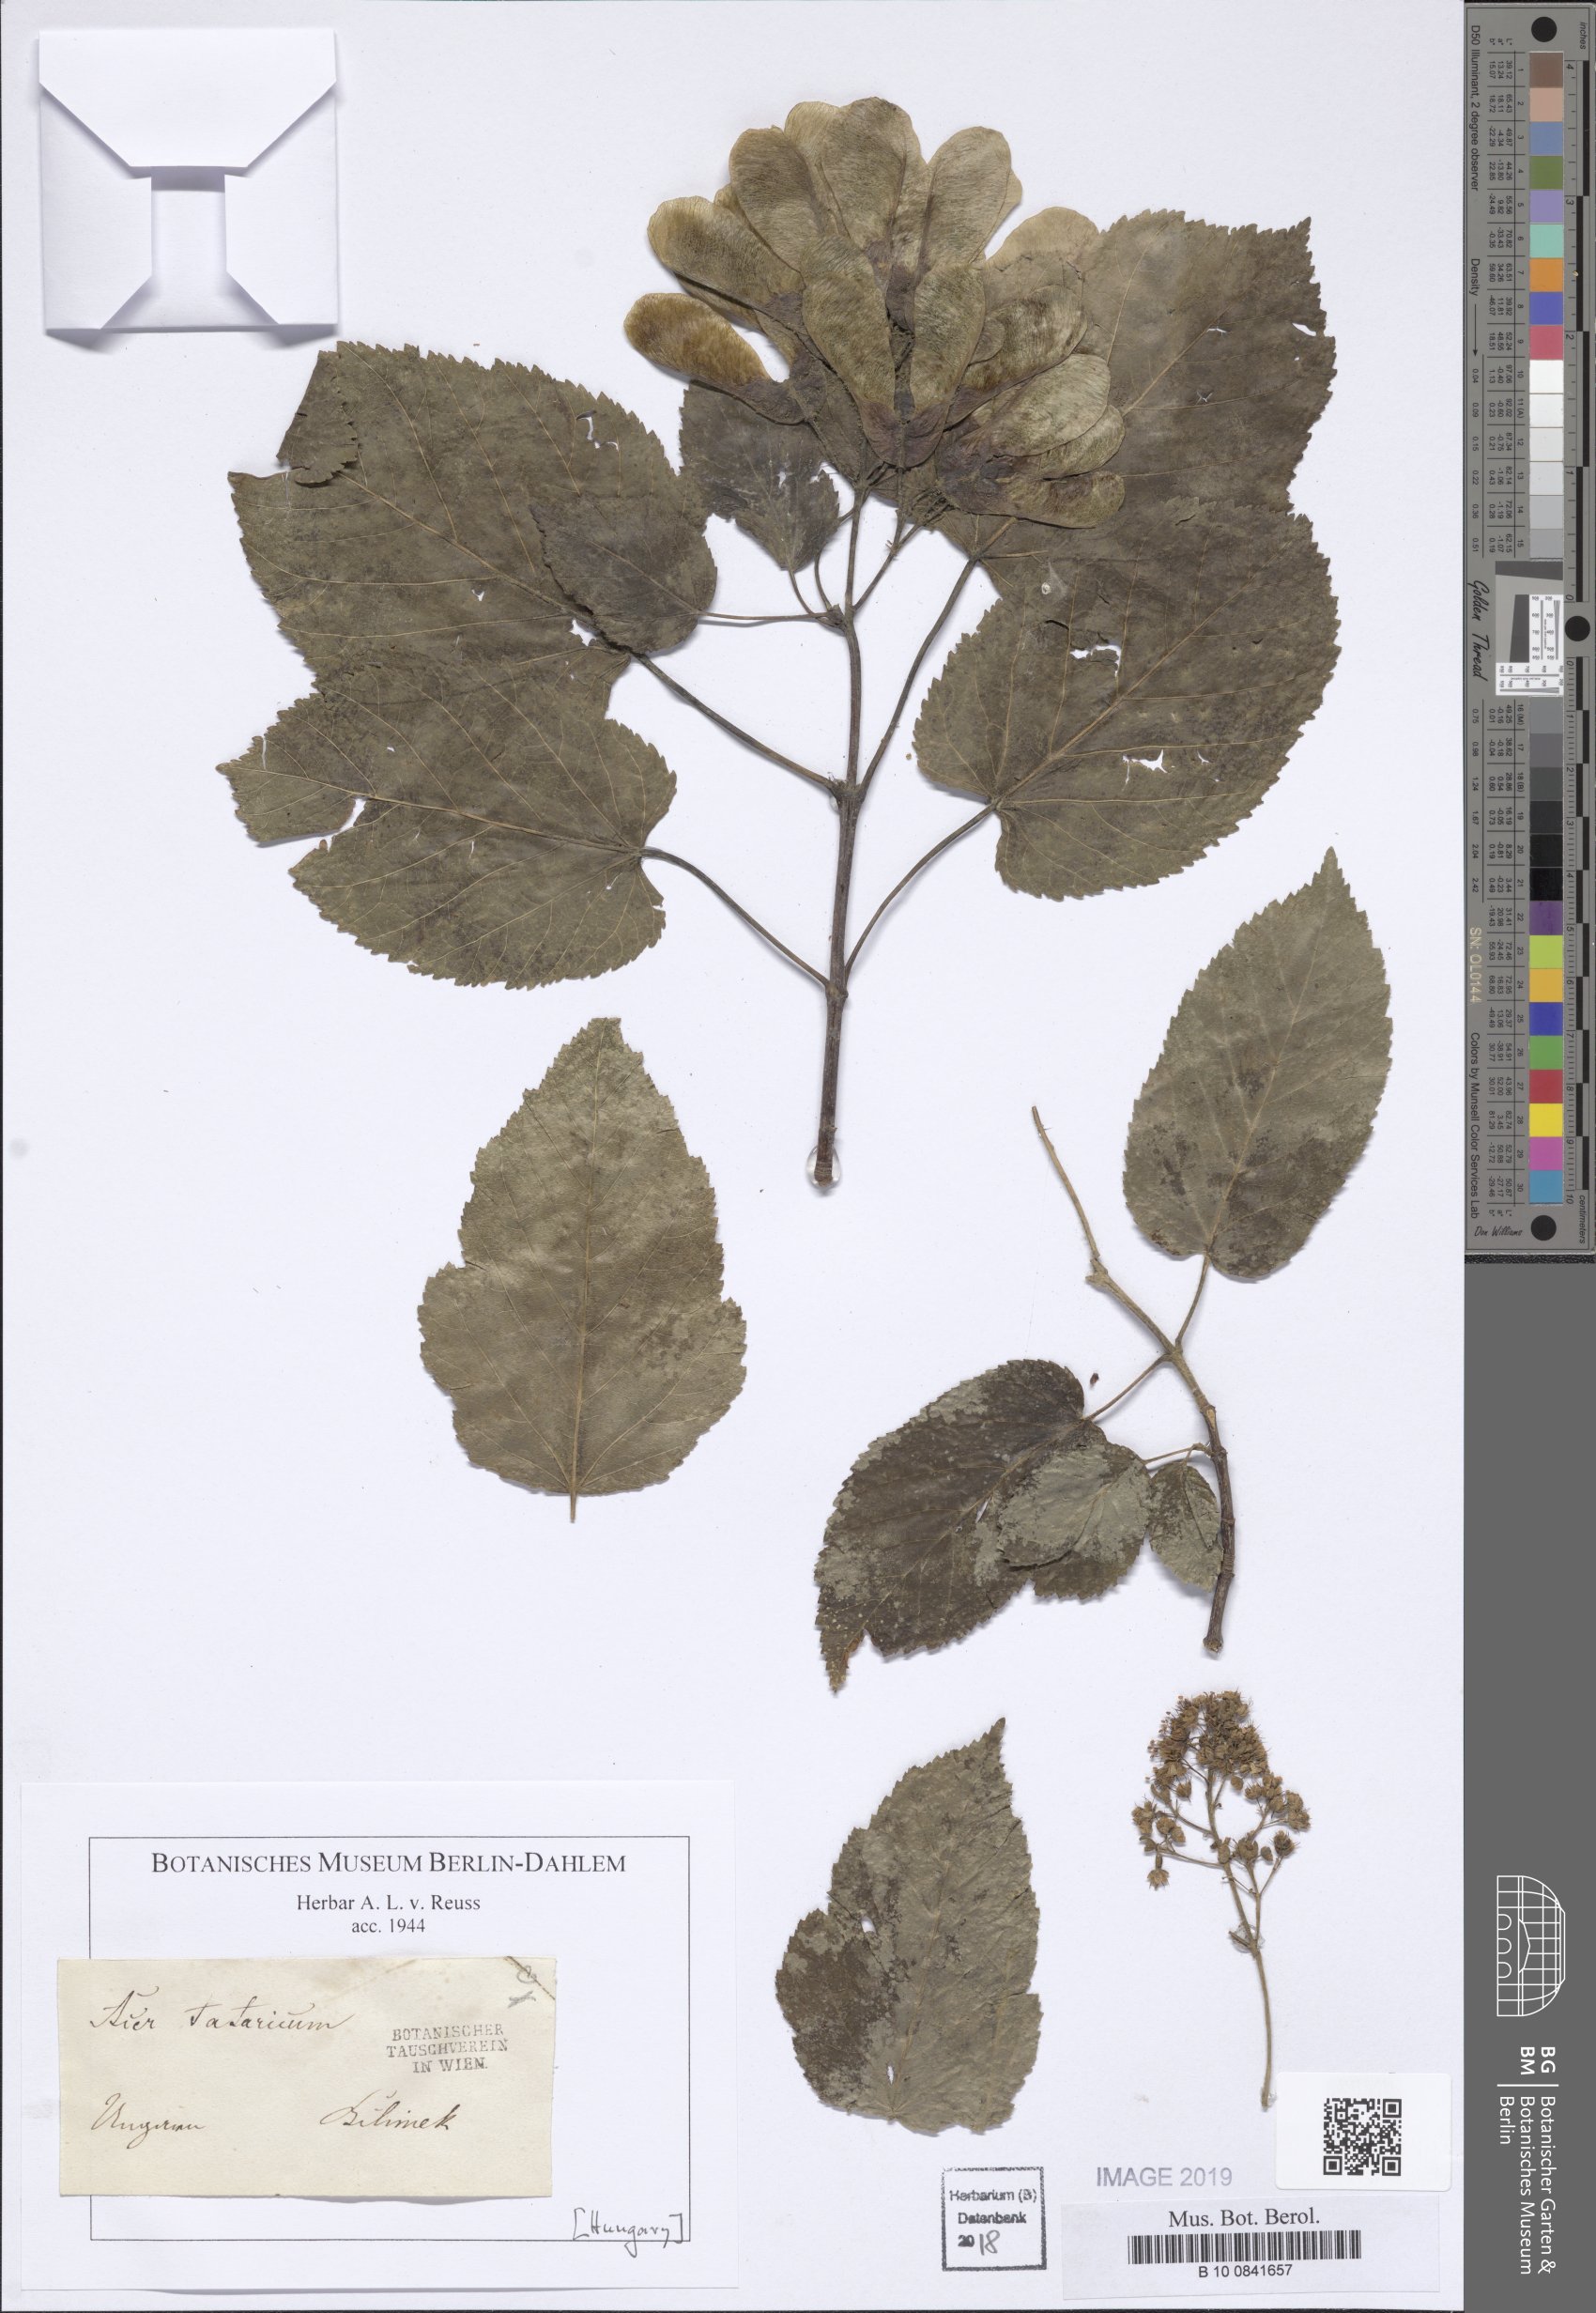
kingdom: Plantae
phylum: Tracheophyta
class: Magnoliopsida
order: Sapindales
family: Sapindaceae
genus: Acer
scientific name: Acer tataricum
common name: Tartar maple
